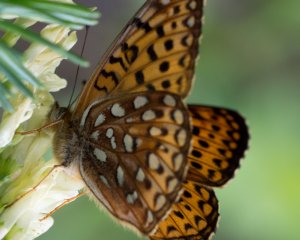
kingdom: Animalia
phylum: Arthropoda
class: Insecta
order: Lepidoptera
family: Nymphalidae
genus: Speyeria
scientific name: Speyeria atlantis
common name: Atlantis Fritillary
